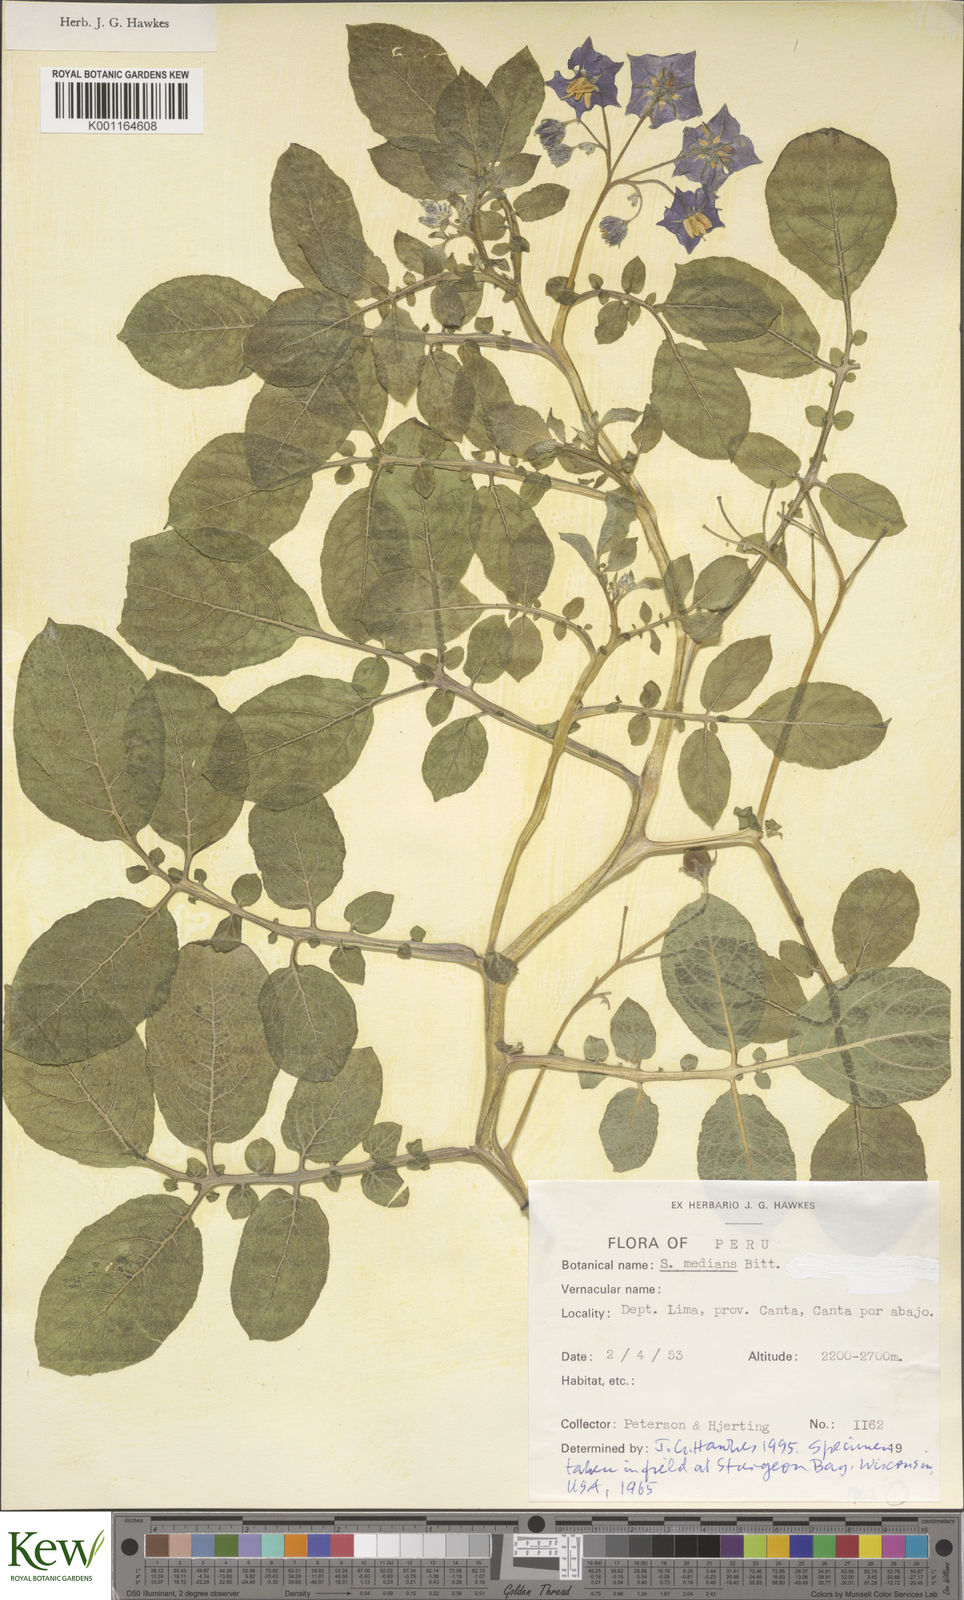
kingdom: Plantae
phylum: Tracheophyta
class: Magnoliopsida
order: Solanales
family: Solanaceae
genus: Solanum
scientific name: Solanum medians
